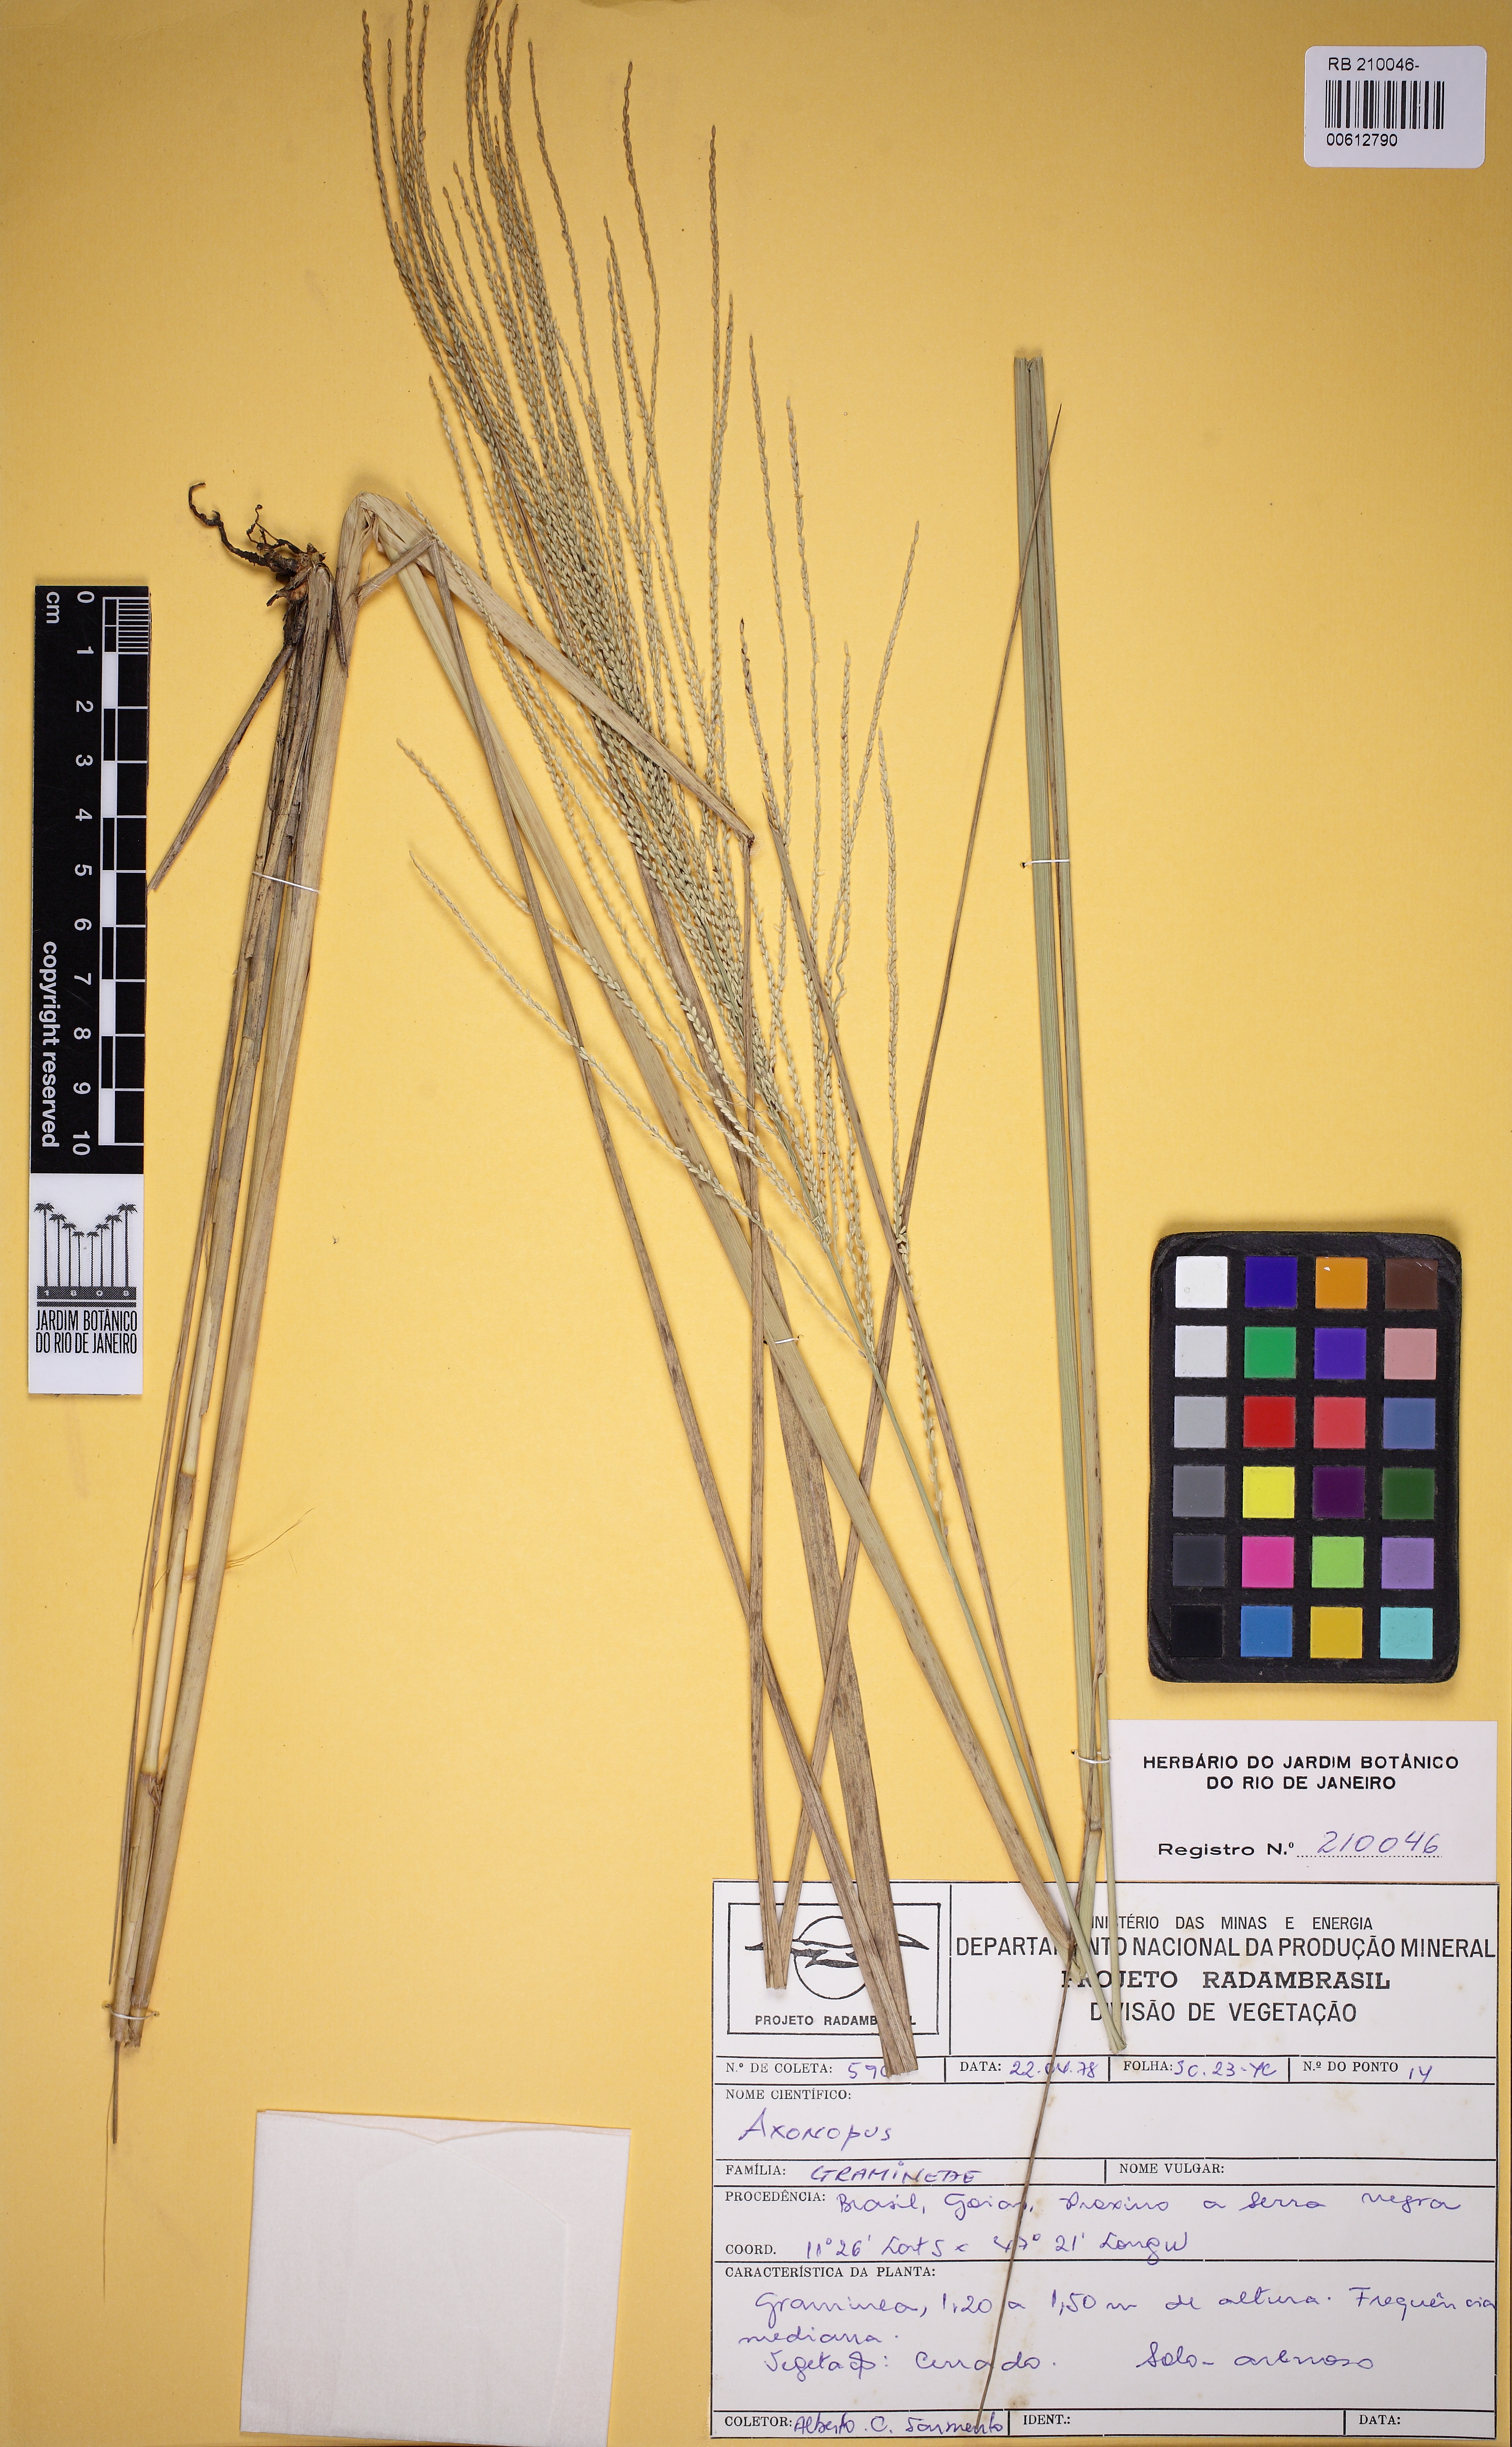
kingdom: Plantae
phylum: Tracheophyta
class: Liliopsida
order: Poales
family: Poaceae
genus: Axonopus
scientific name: Axonopus
